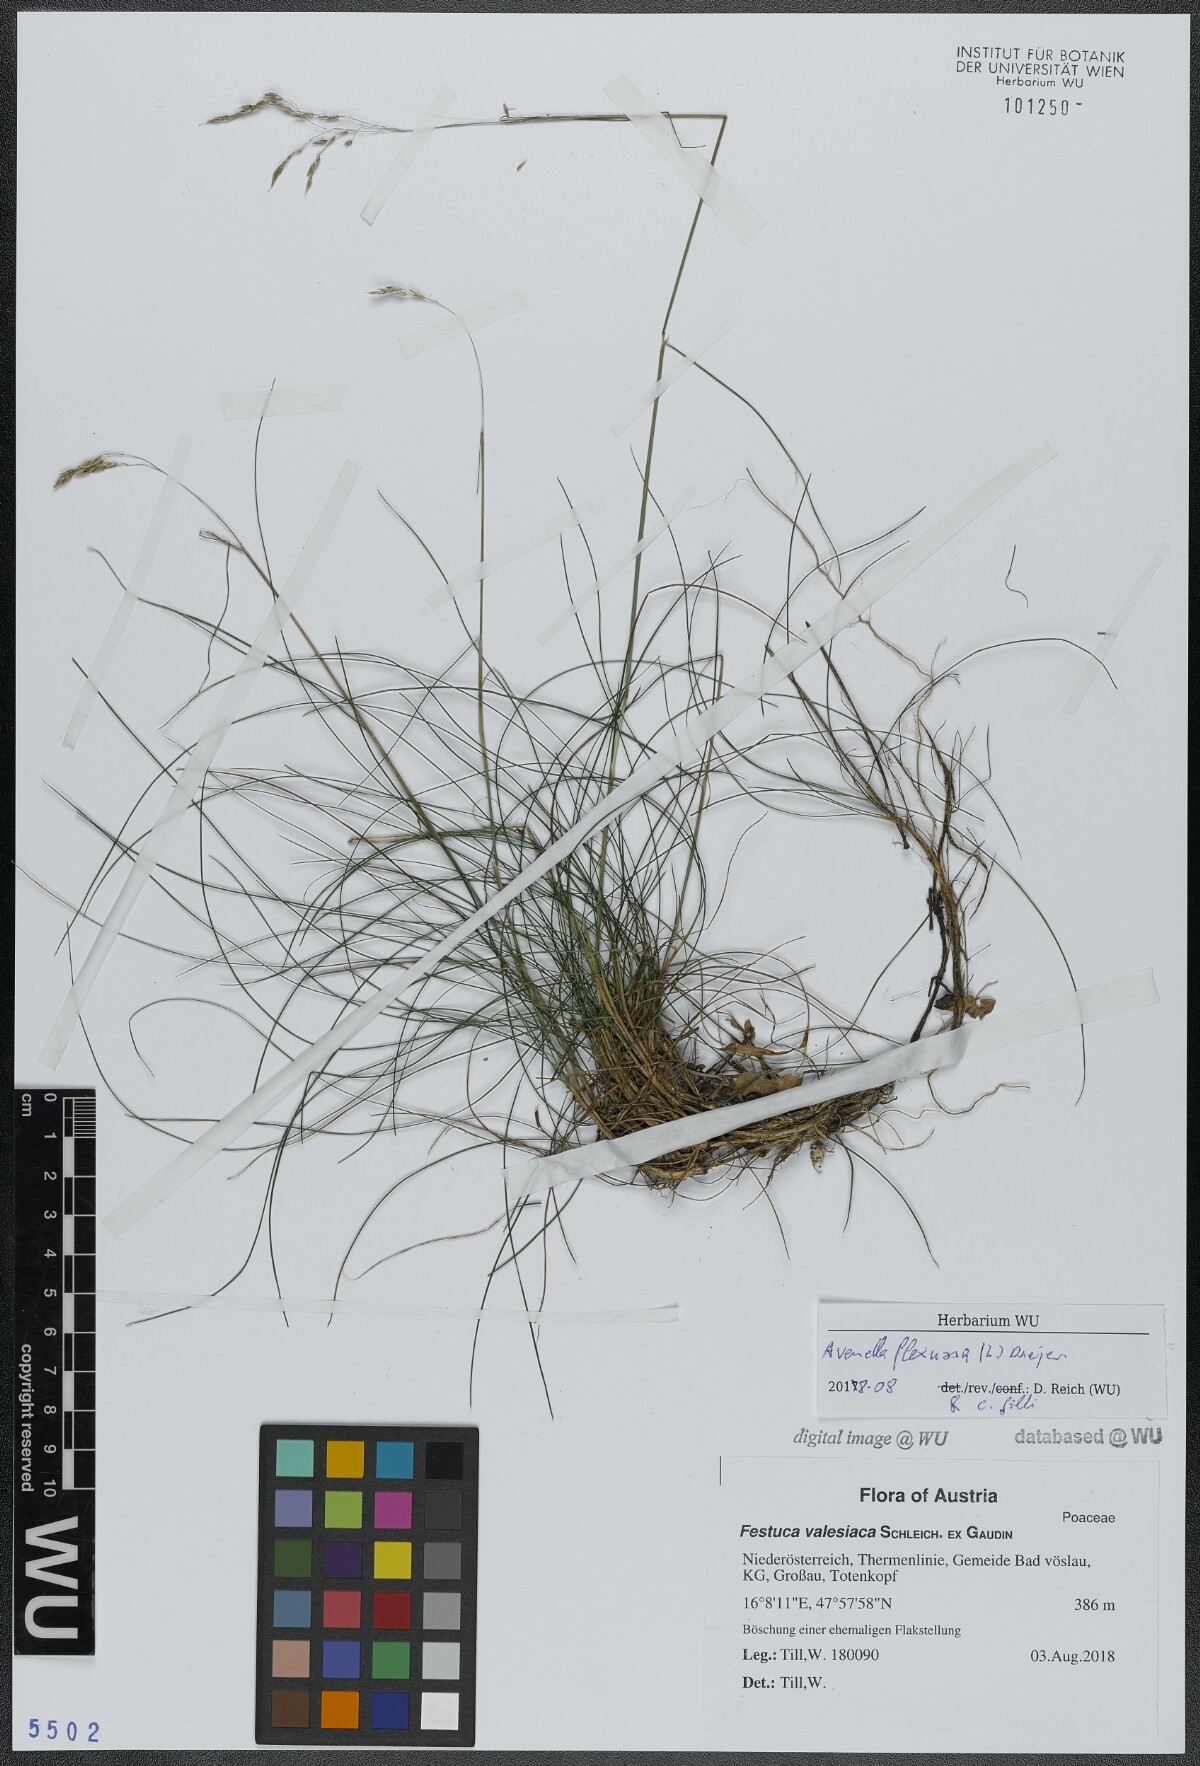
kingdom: Plantae
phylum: Tracheophyta
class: Liliopsida
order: Poales
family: Poaceae
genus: Avenella
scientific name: Avenella flexuosa
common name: Wavy hairgrass
